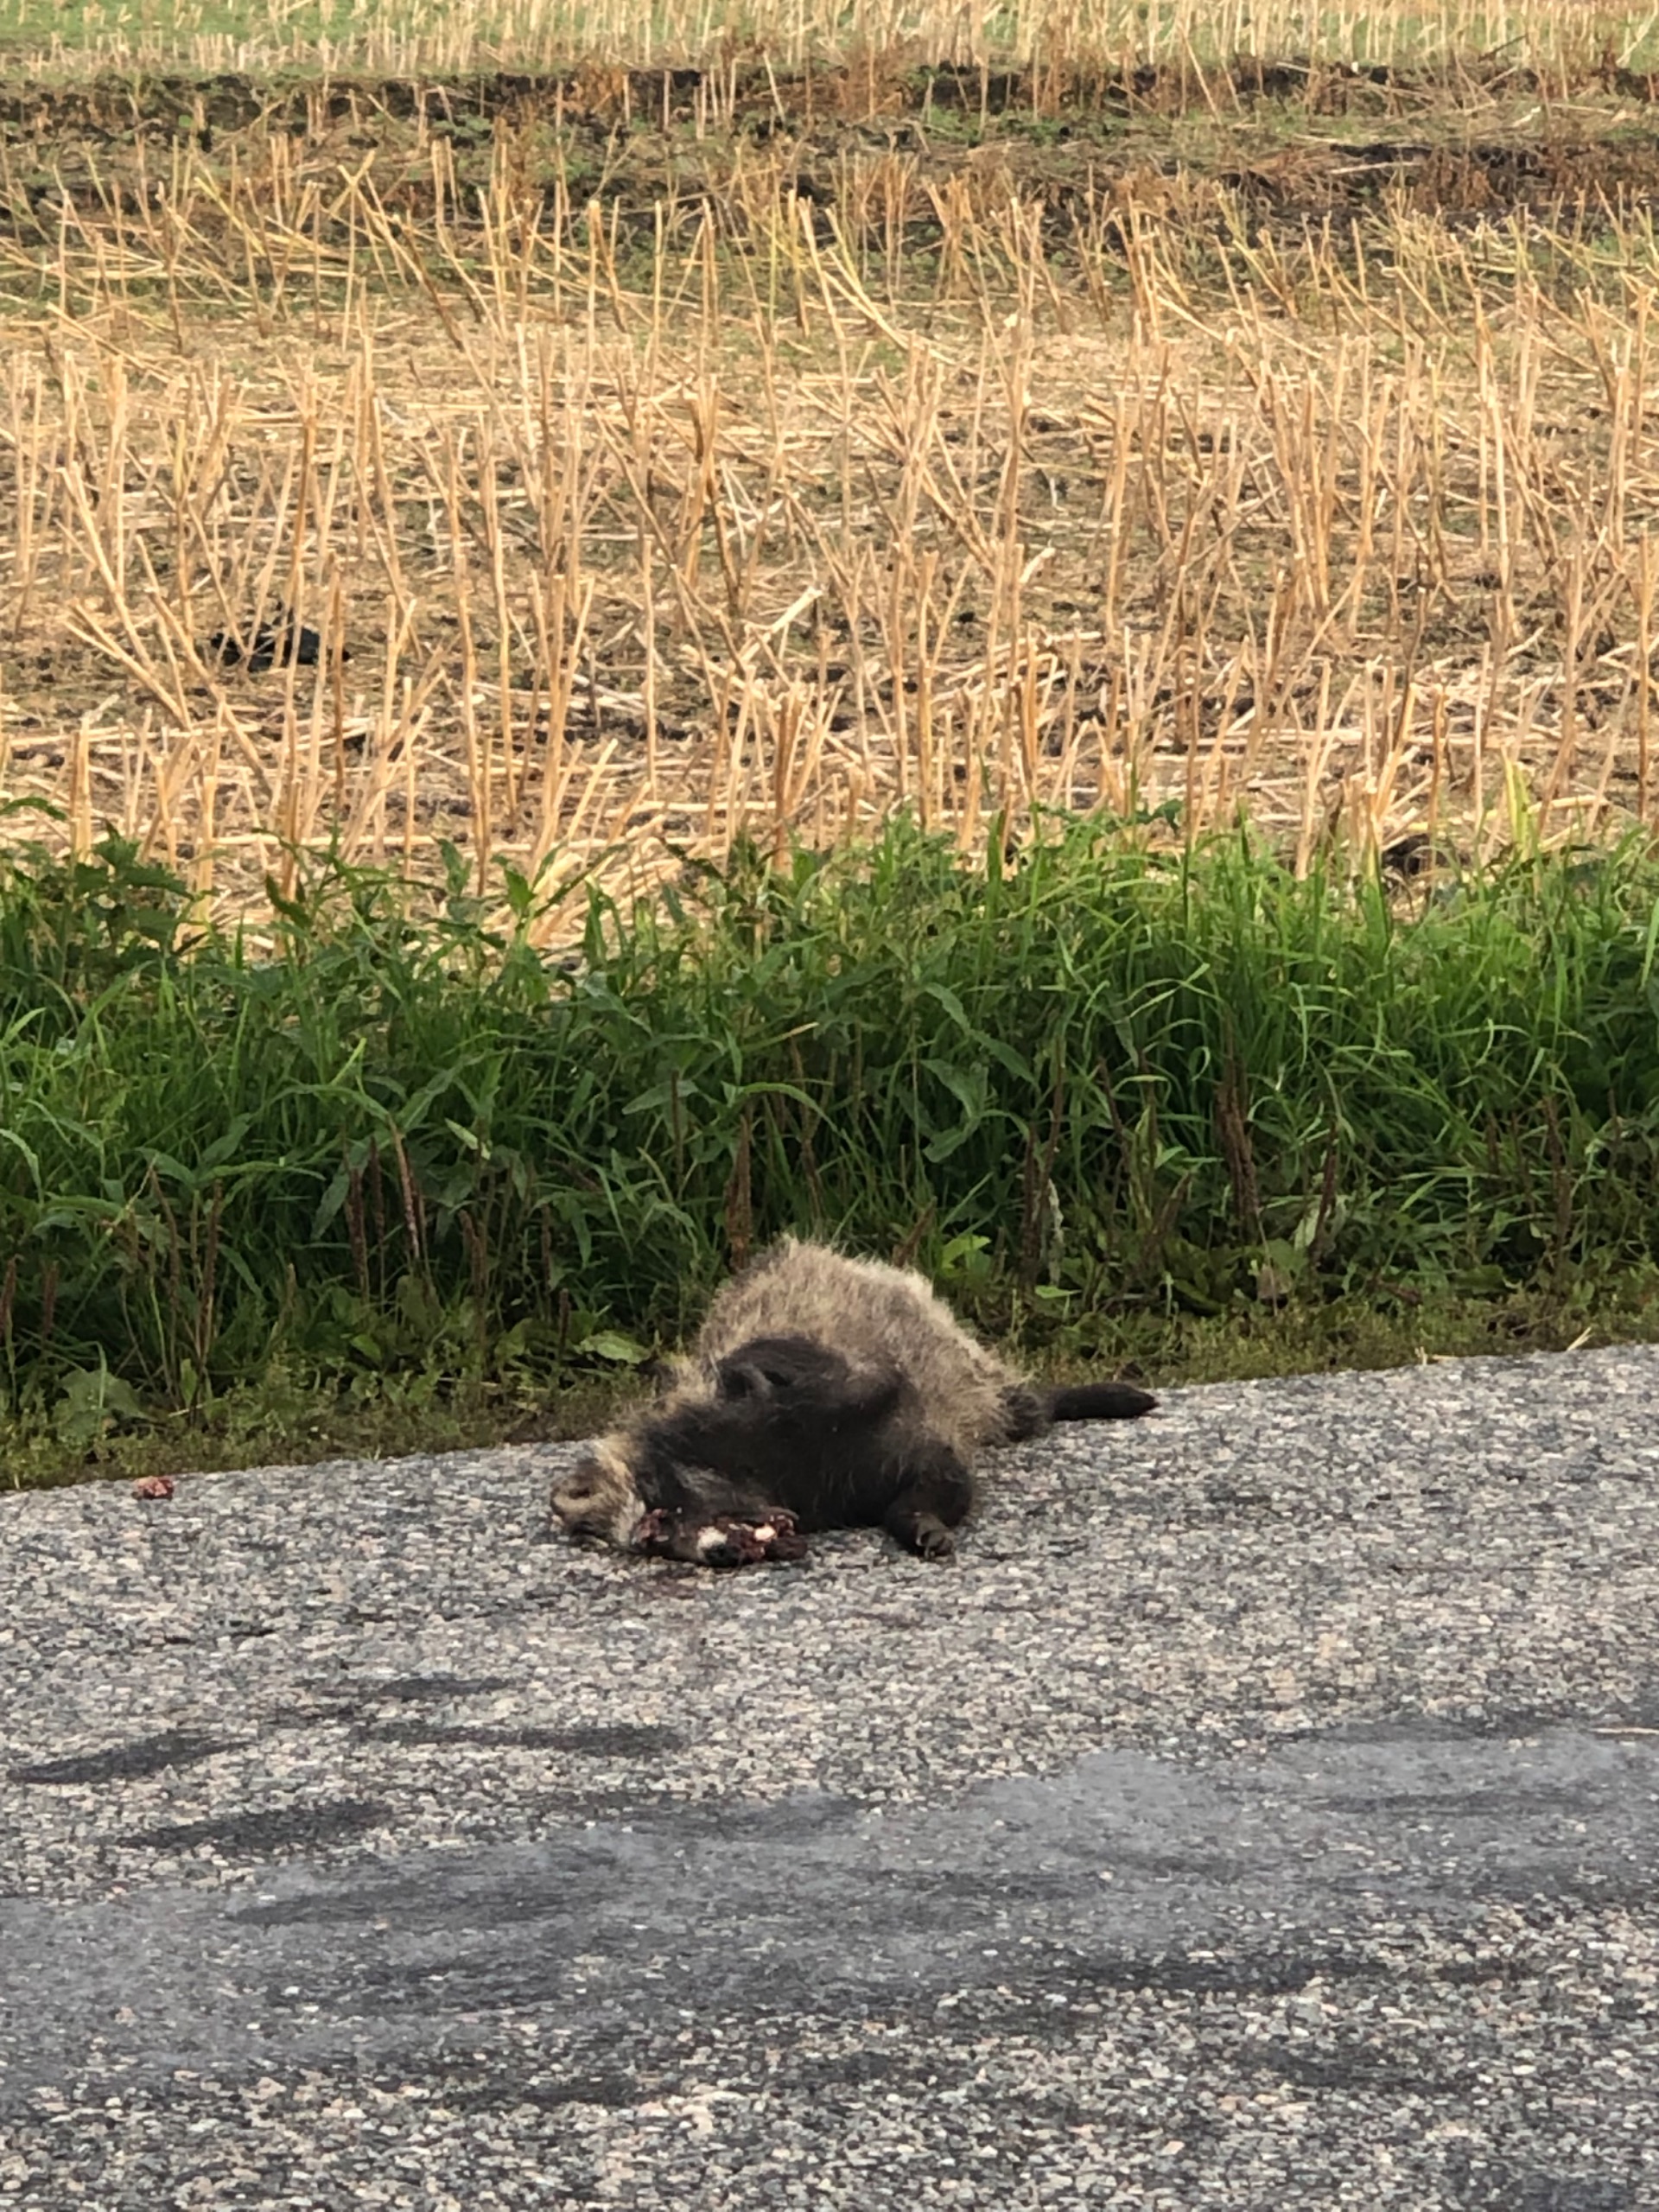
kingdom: Animalia
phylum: Chordata
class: Mammalia
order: Carnivora
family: Canidae
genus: Nyctereutes
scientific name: Nyctereutes procyonoides
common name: Mårhund
